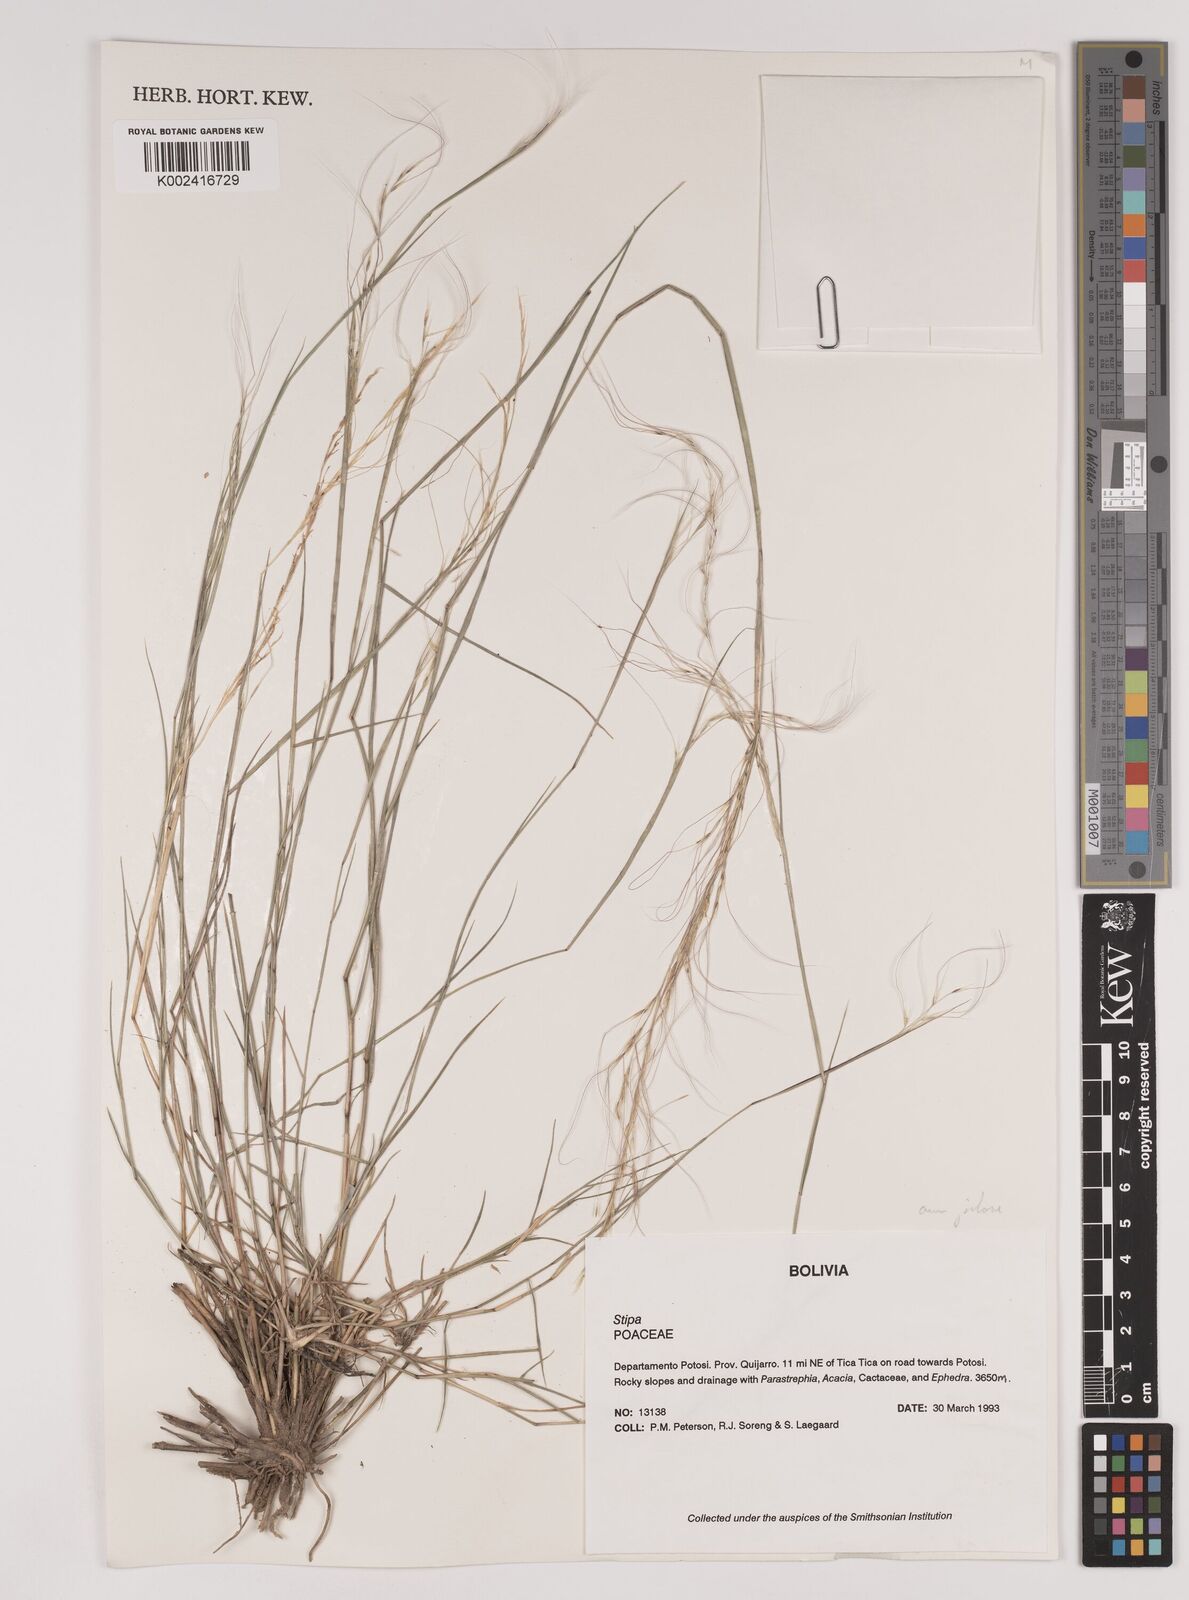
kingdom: Plantae
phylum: Tracheophyta
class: Liliopsida
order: Poales
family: Poaceae
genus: Stipa
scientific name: Stipa plumosa
